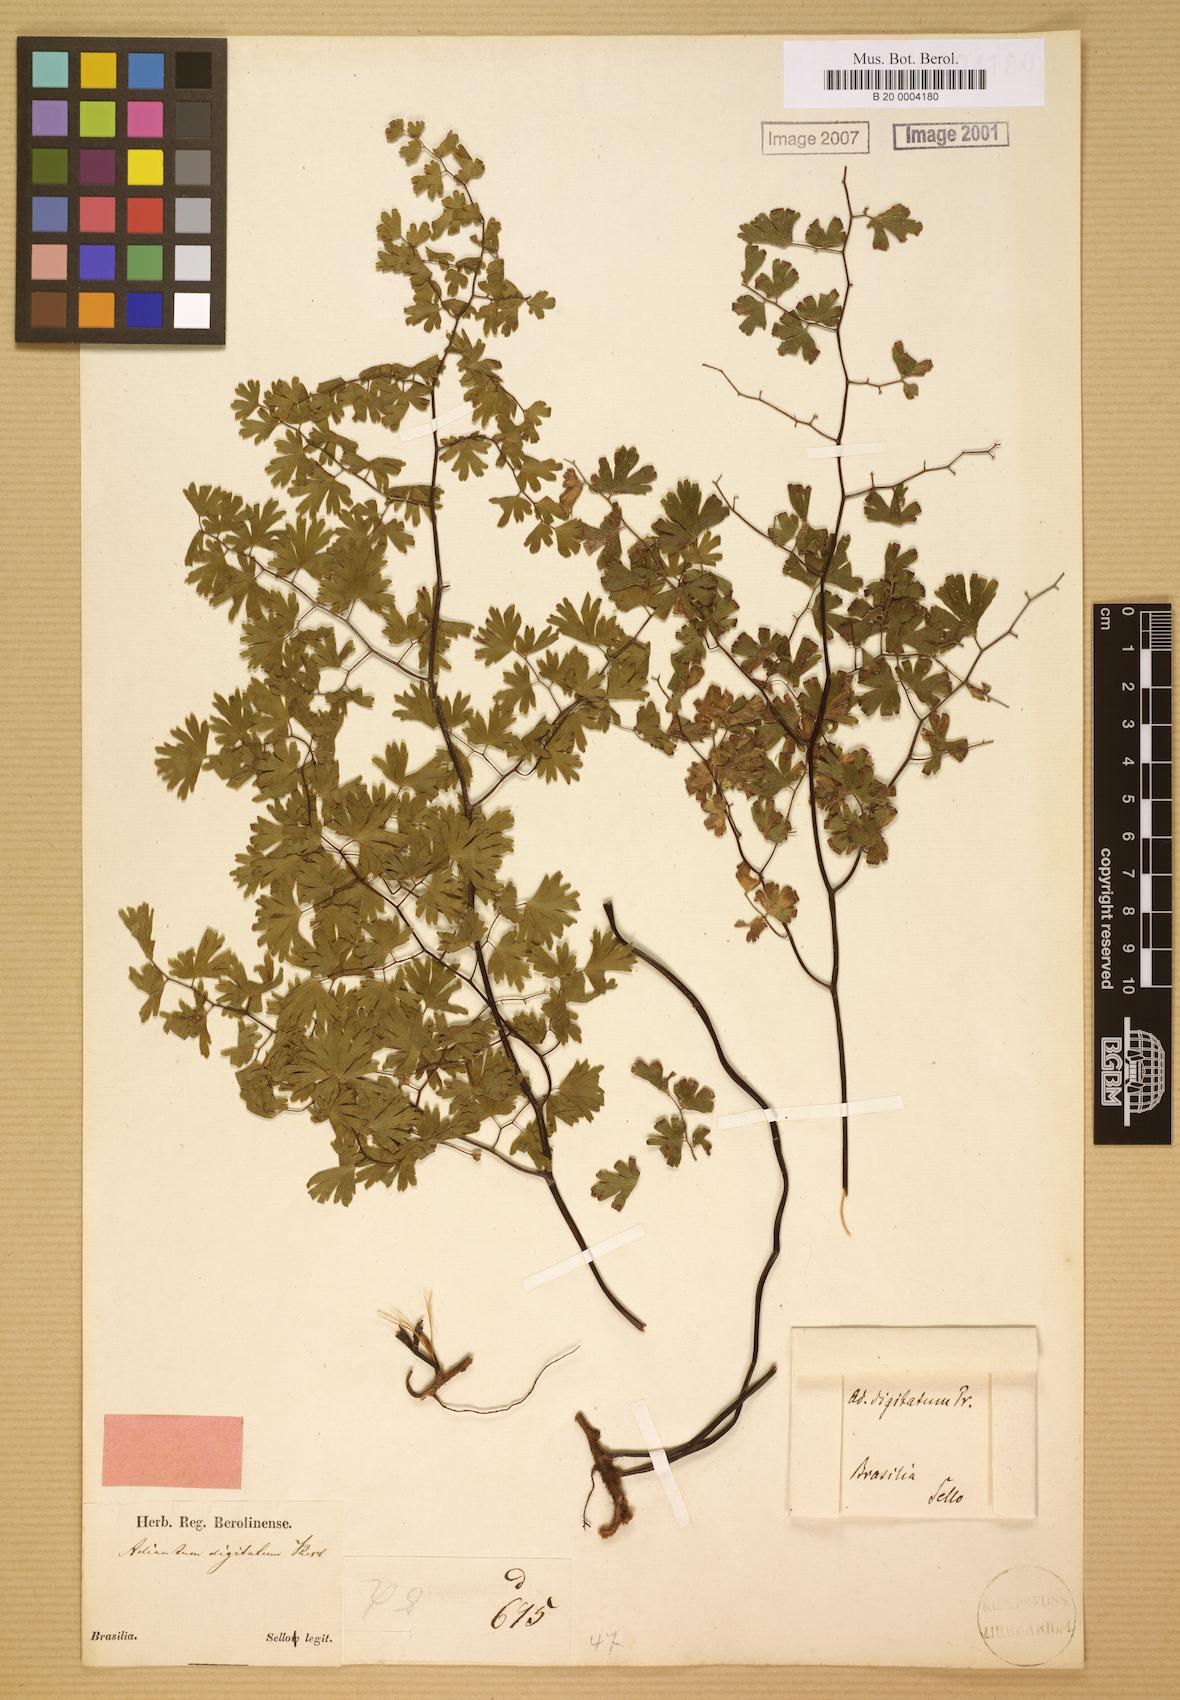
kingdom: Plantae
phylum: Tracheophyta
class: Polypodiopsida
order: Polypodiales
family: Pteridaceae
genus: Adiantum
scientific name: Adiantum digitatum
